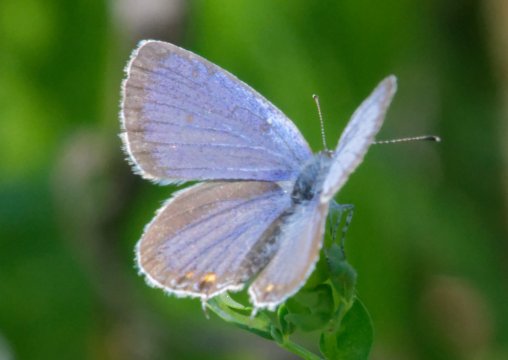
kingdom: Animalia
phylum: Arthropoda
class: Insecta
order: Lepidoptera
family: Lycaenidae
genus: Elkalyce
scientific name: Elkalyce comyntas
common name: Eastern Tailed-Blue
